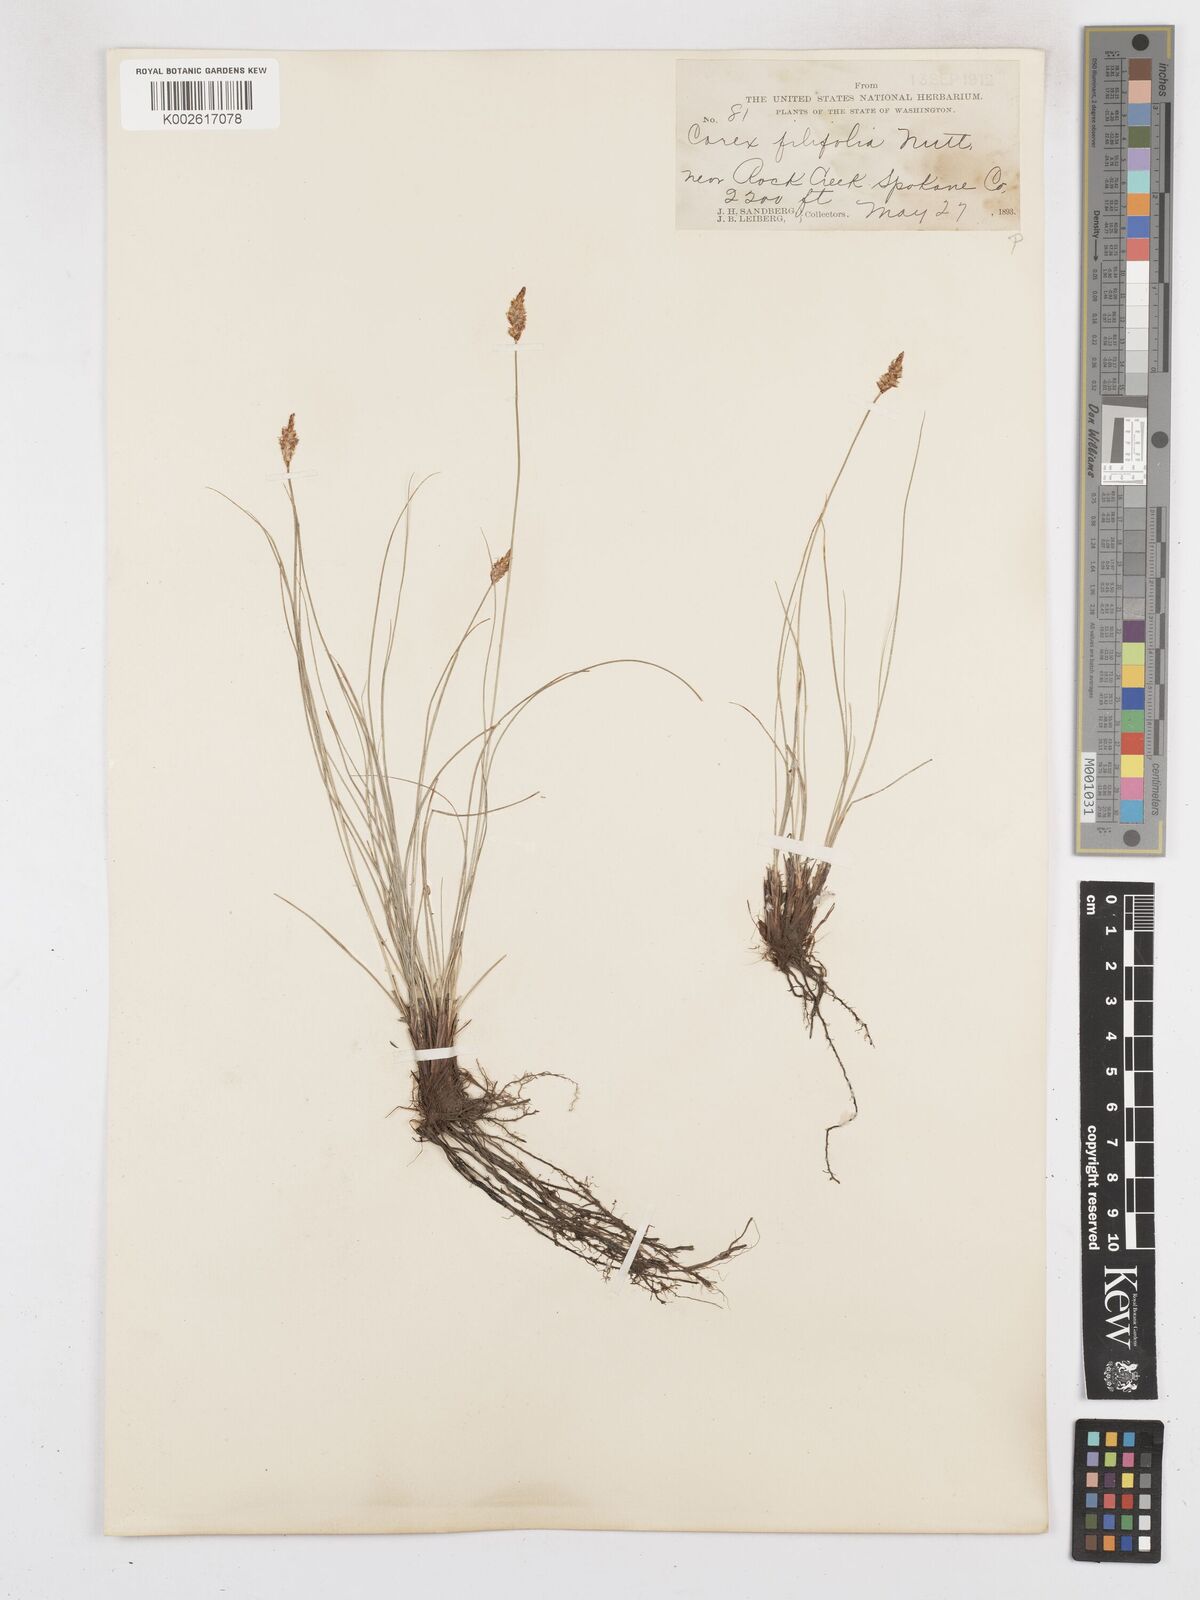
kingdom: Plantae
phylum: Tracheophyta
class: Liliopsida
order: Poales
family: Cyperaceae
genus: Carex
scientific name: Carex filifolia
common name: Threadleaf sedge
